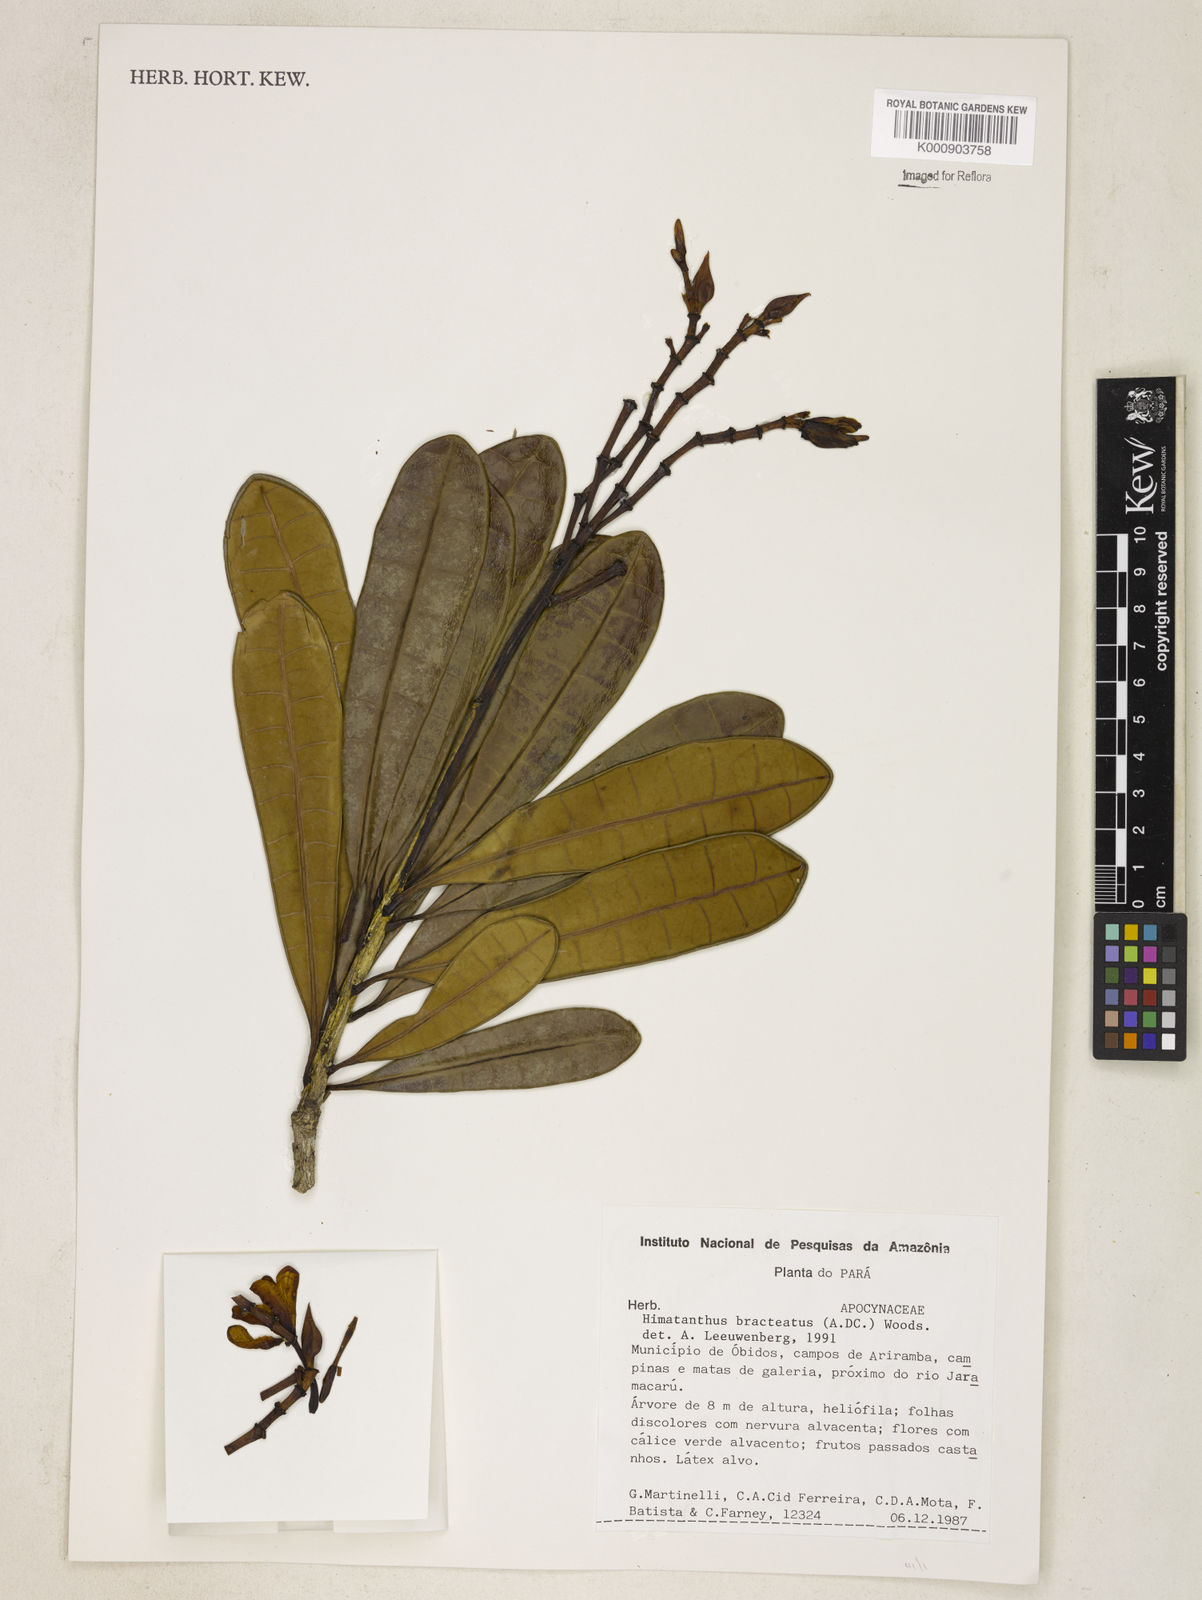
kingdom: Plantae
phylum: Tracheophyta
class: Magnoliopsida
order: Gentianales
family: Apocynaceae
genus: Himatanthus
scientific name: Himatanthus bracteatus
